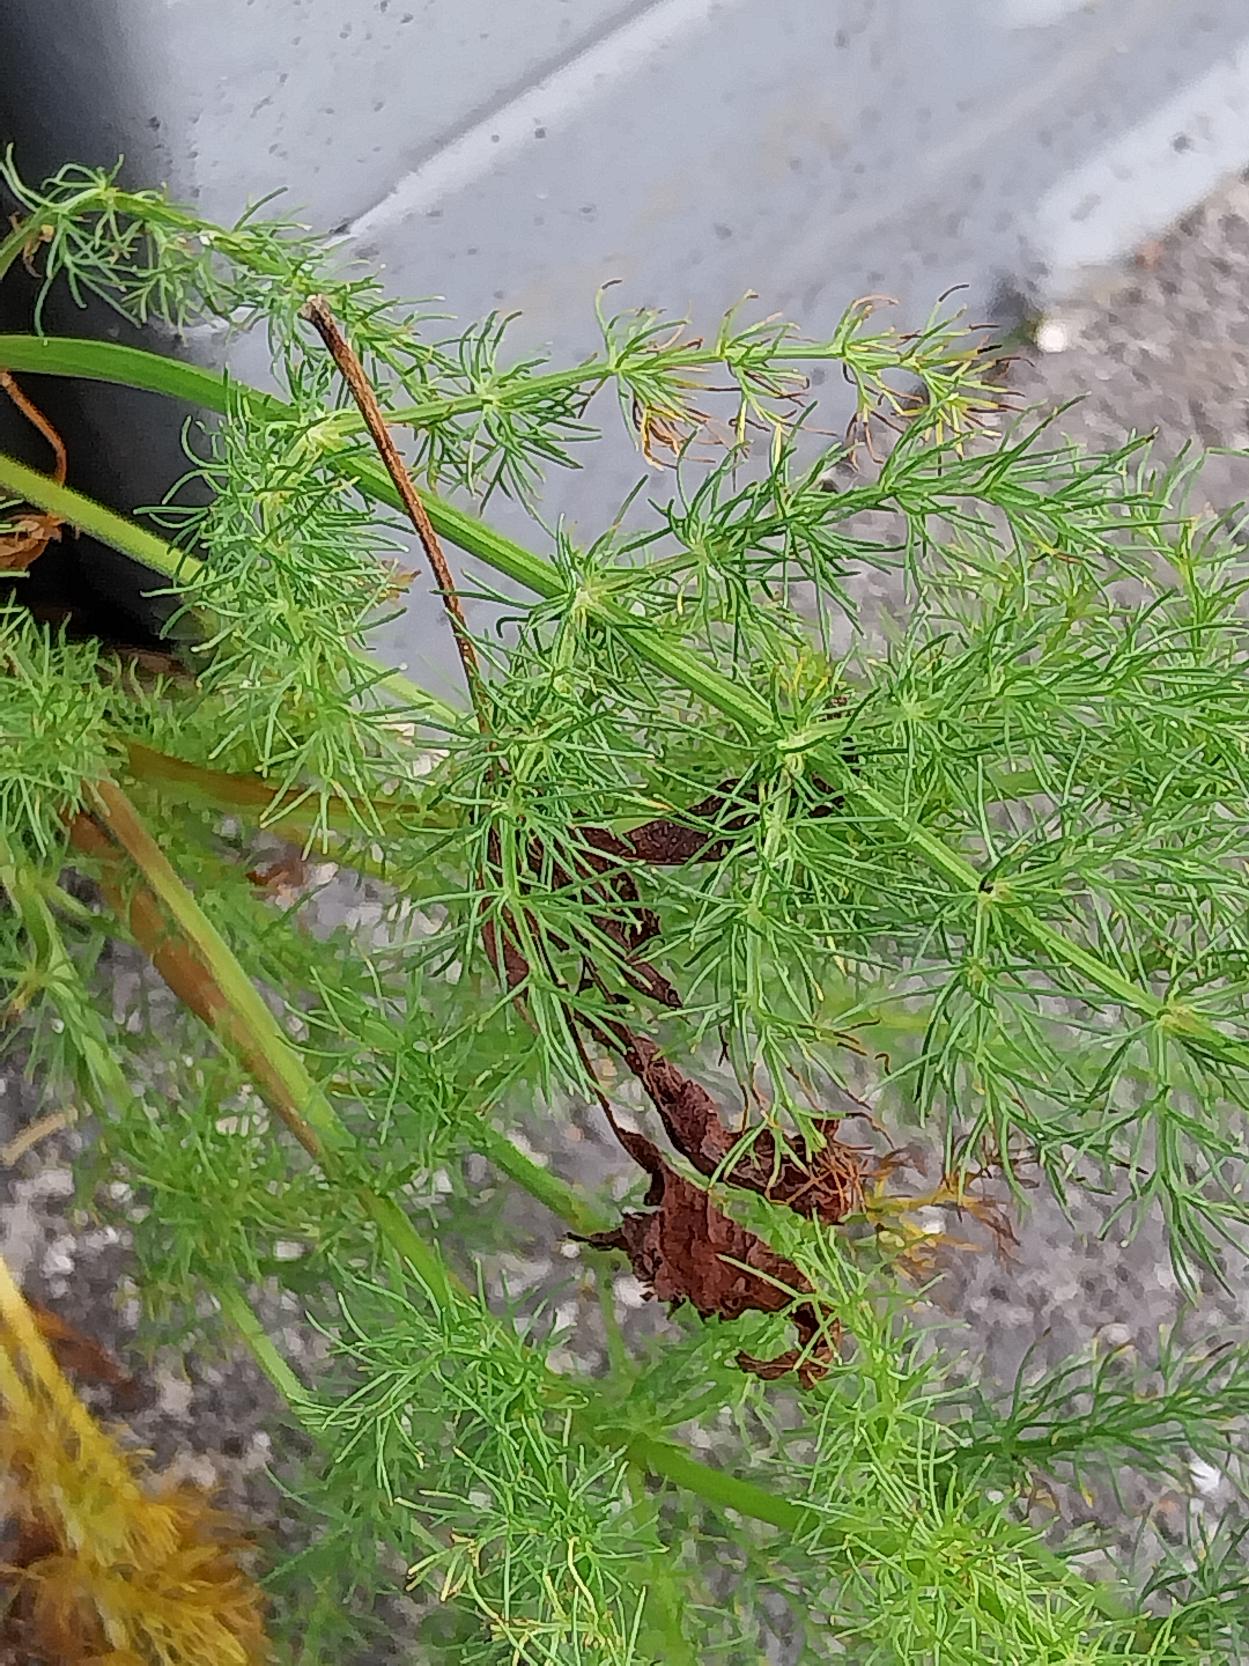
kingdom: Plantae
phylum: Tracheophyta
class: Magnoliopsida
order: Apiales
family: Apiaceae
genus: Meum
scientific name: Meum athamanticum
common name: Bjørnerod
